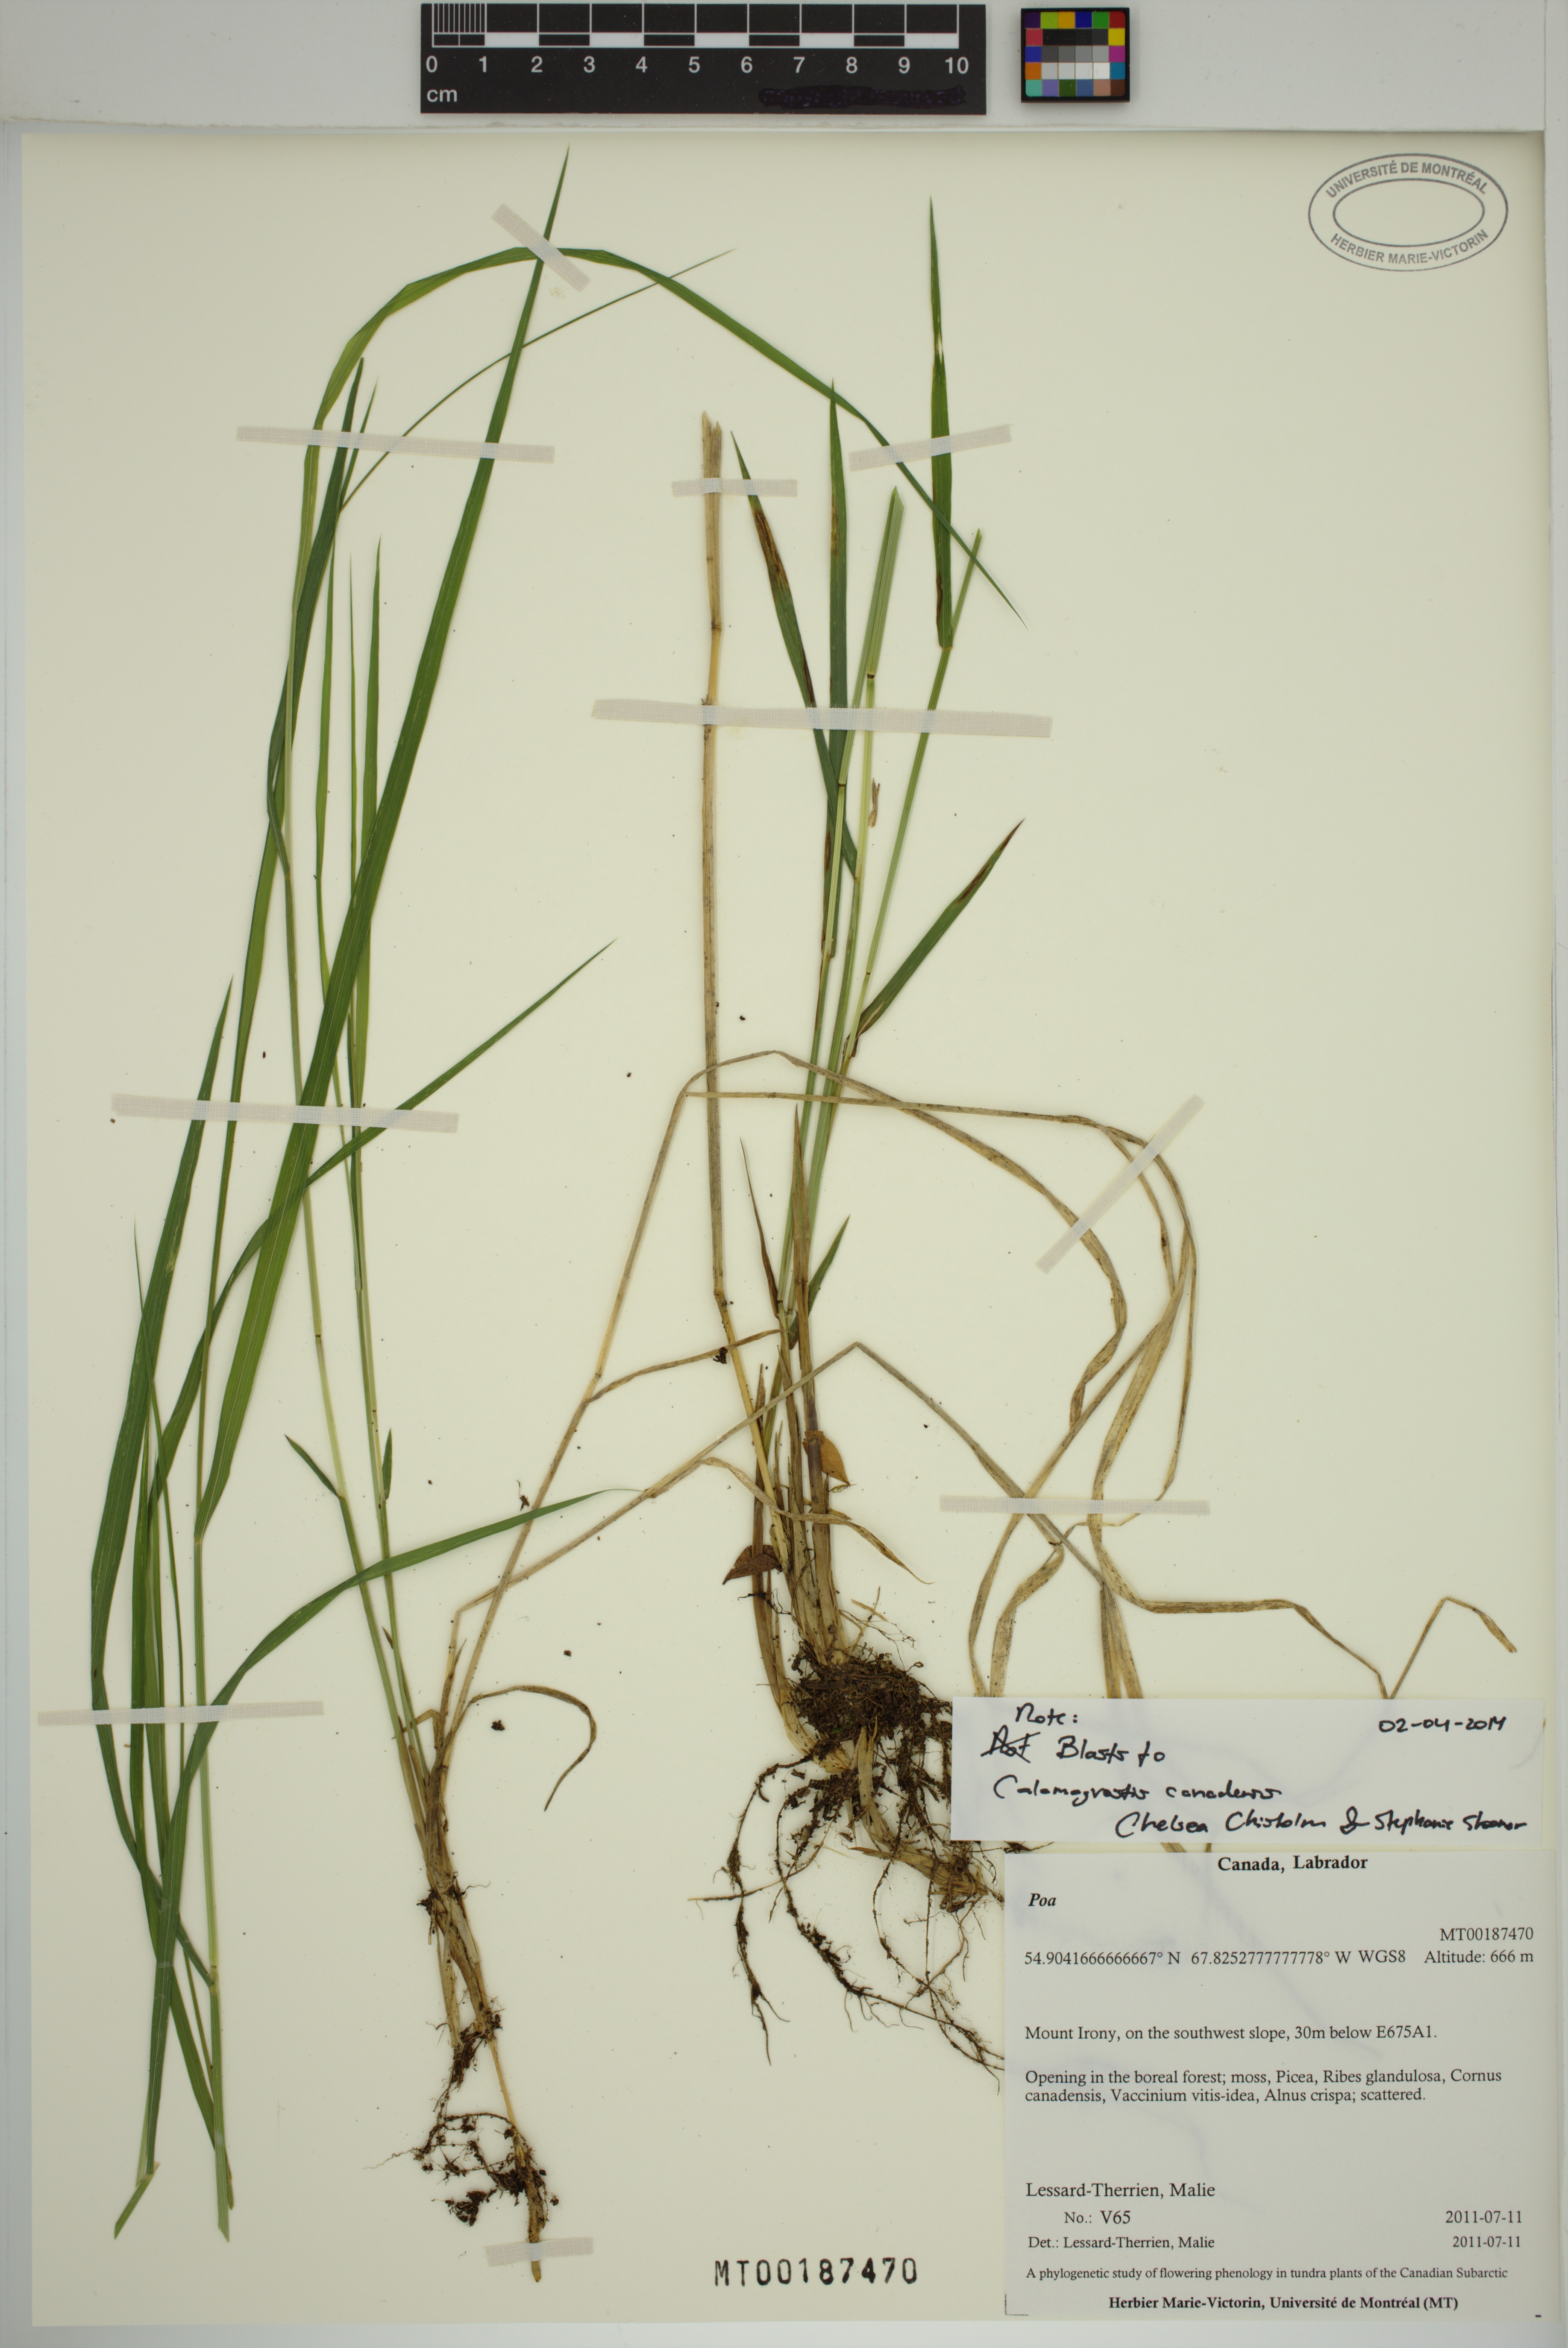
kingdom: Plantae
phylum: Tracheophyta
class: Liliopsida
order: Poales
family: Poaceae
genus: Calamagrostis
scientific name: Calamagrostis canadensis
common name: Canada bluejoint
